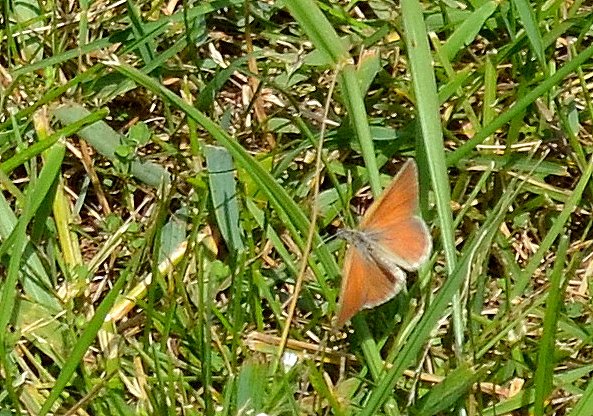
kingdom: Animalia
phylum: Arthropoda
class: Insecta
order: Lepidoptera
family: Nymphalidae
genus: Coenonympha
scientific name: Coenonympha tullia
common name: Large Heath
